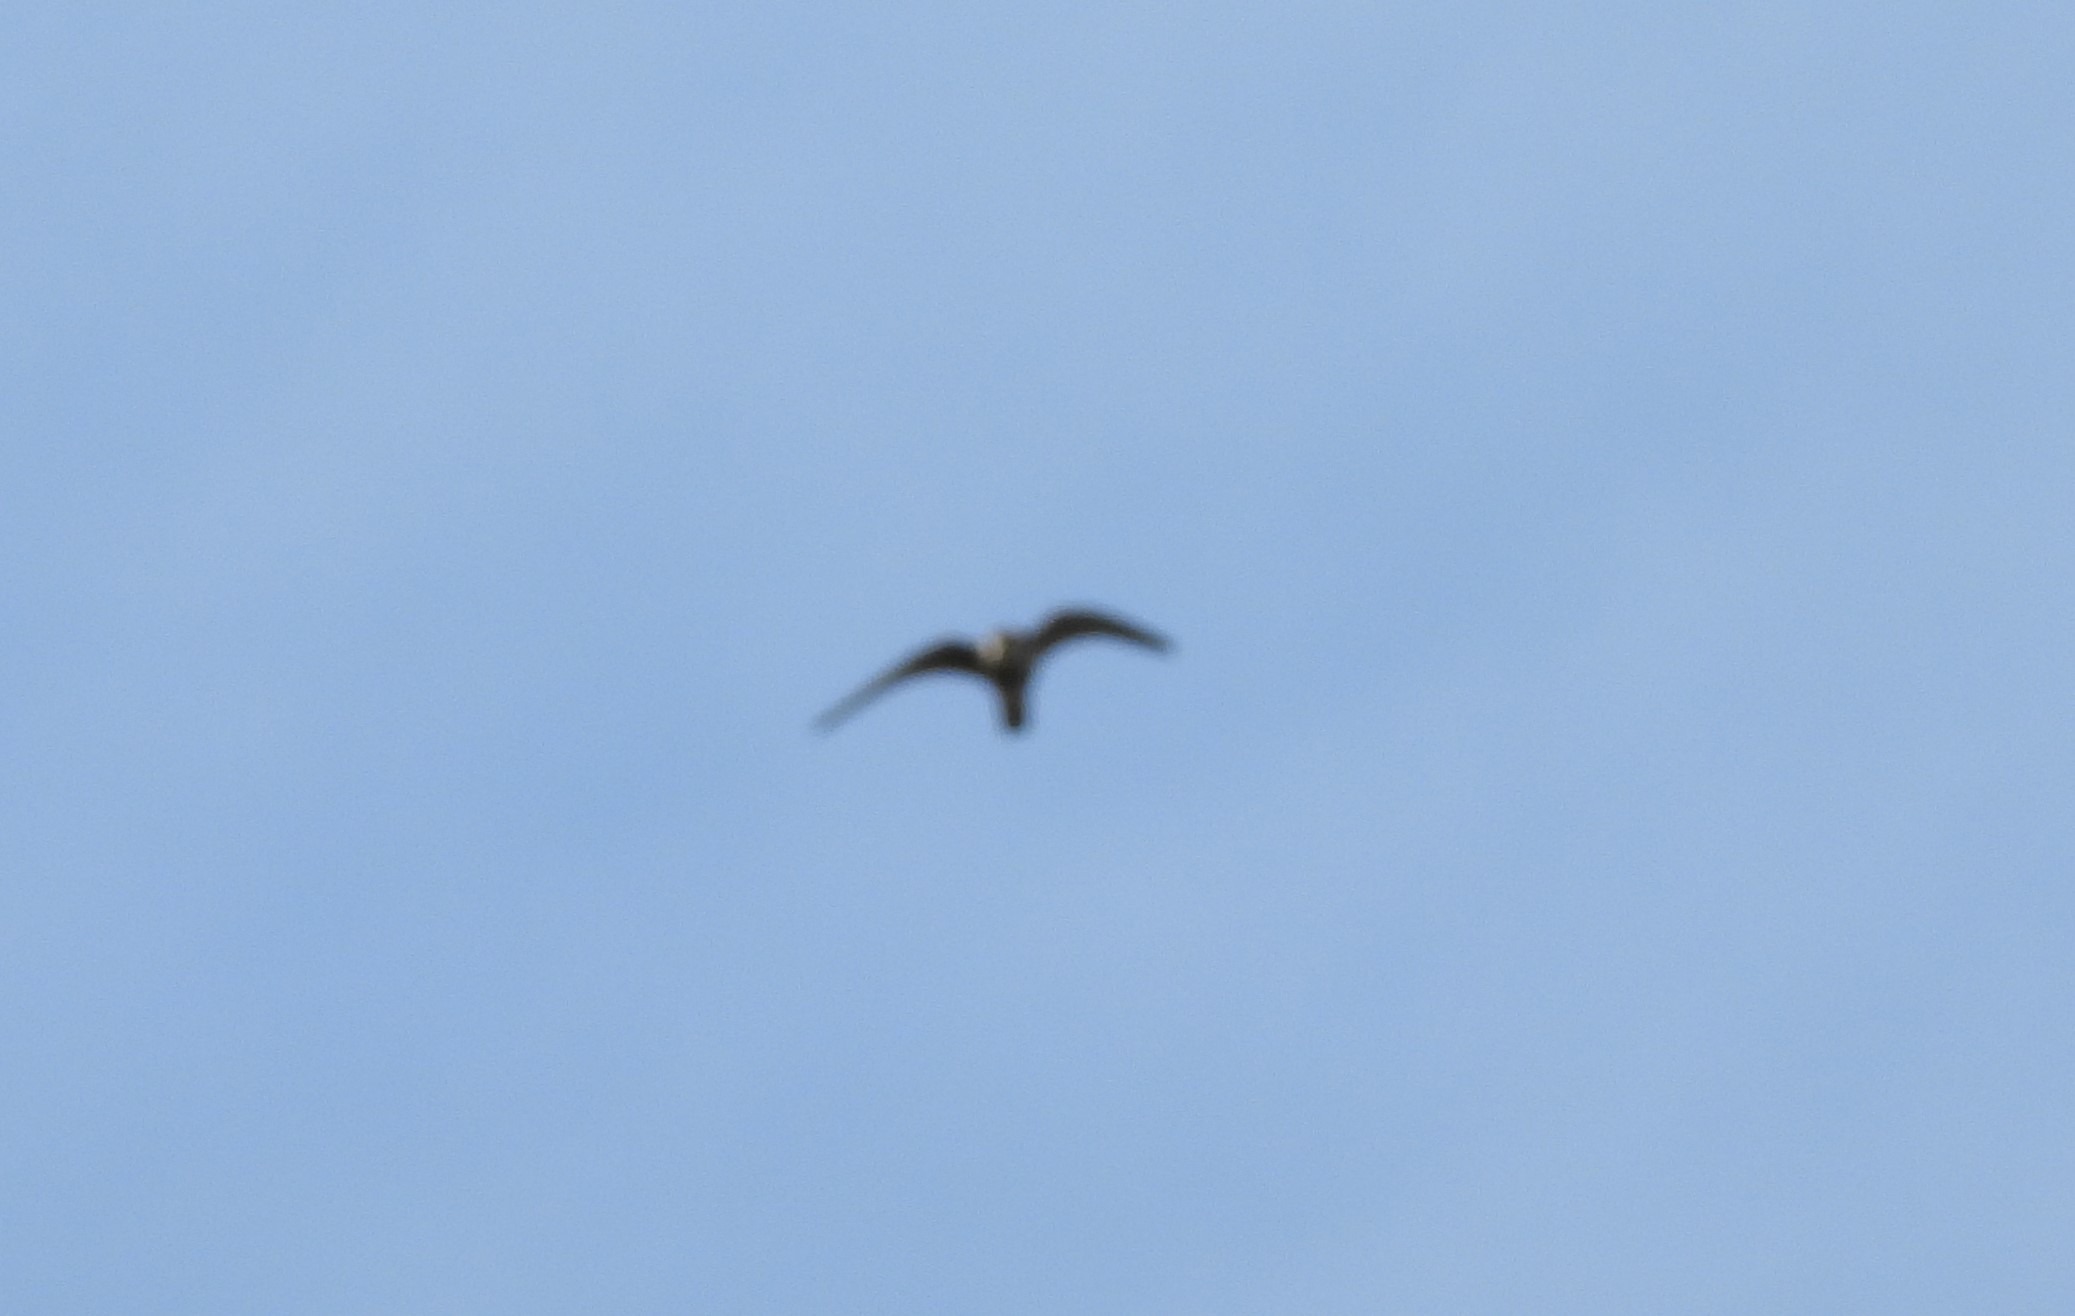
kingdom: Animalia
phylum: Chordata
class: Aves
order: Falconiformes
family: Falconidae
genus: Falco
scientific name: Falco subbuteo
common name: Lærkefalk
